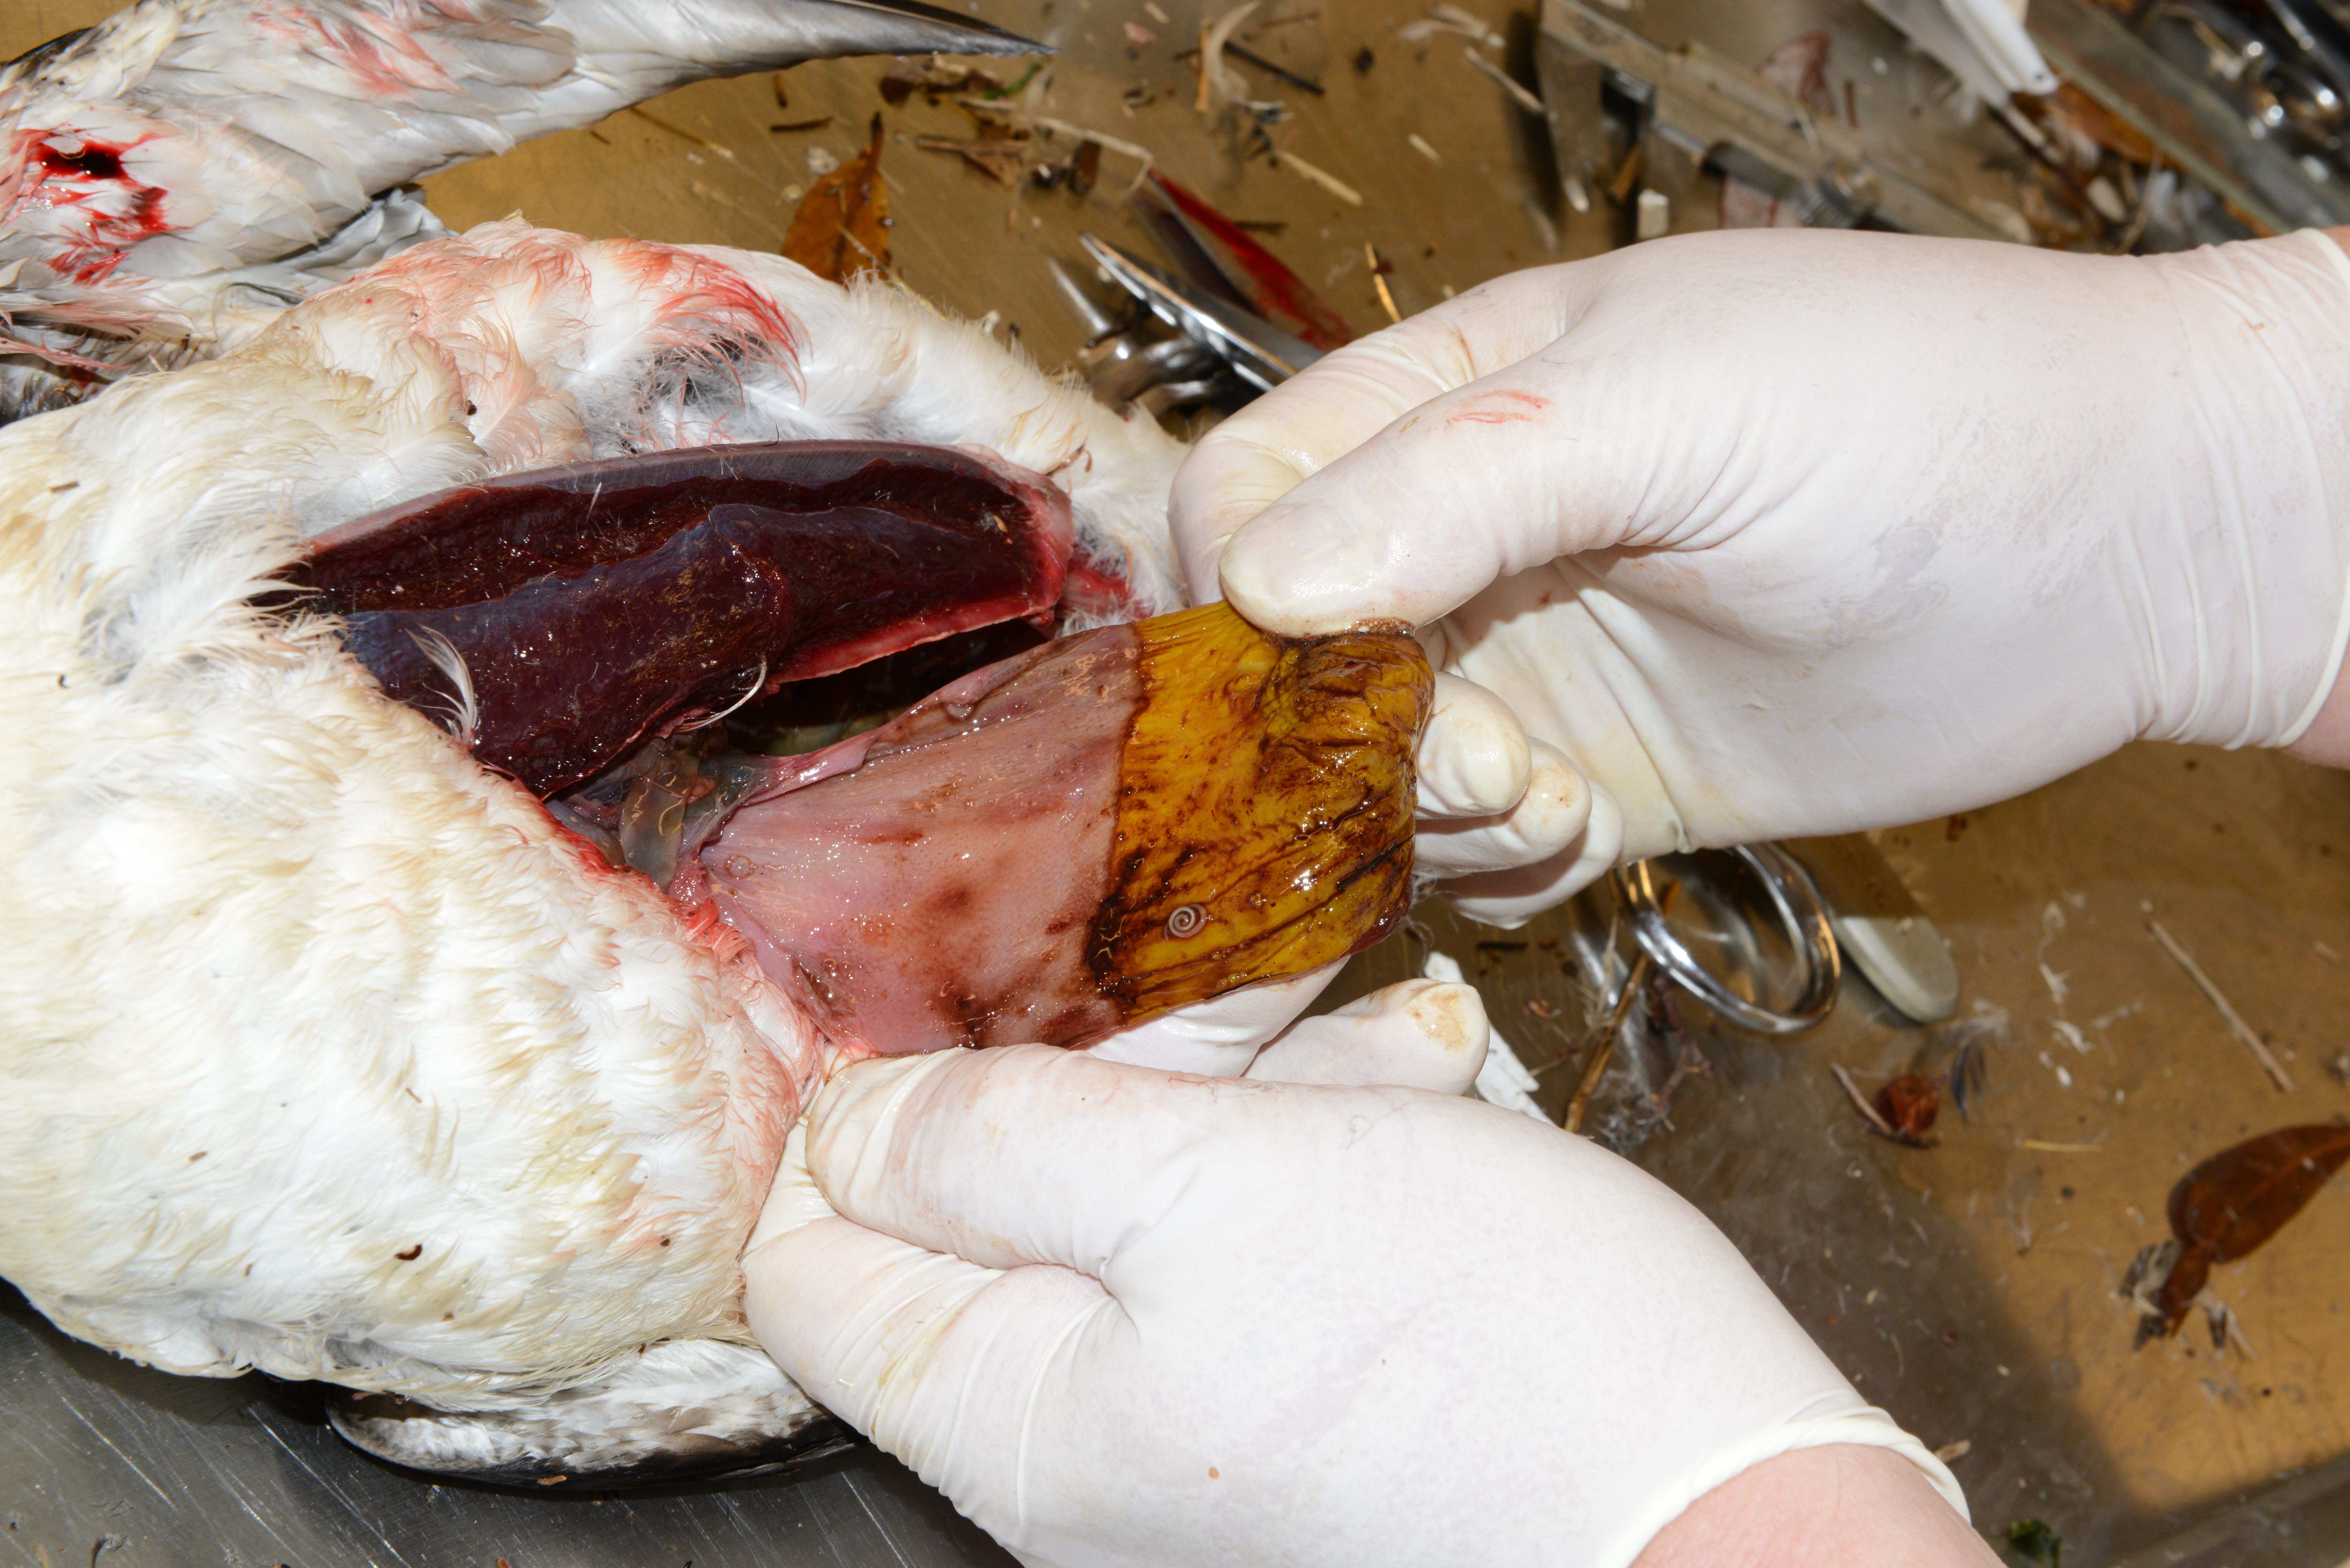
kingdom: Animalia
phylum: Chordata
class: Aves
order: Charadriiformes
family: Alcidae
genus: Uria
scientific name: Uria aalge
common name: Common murre
